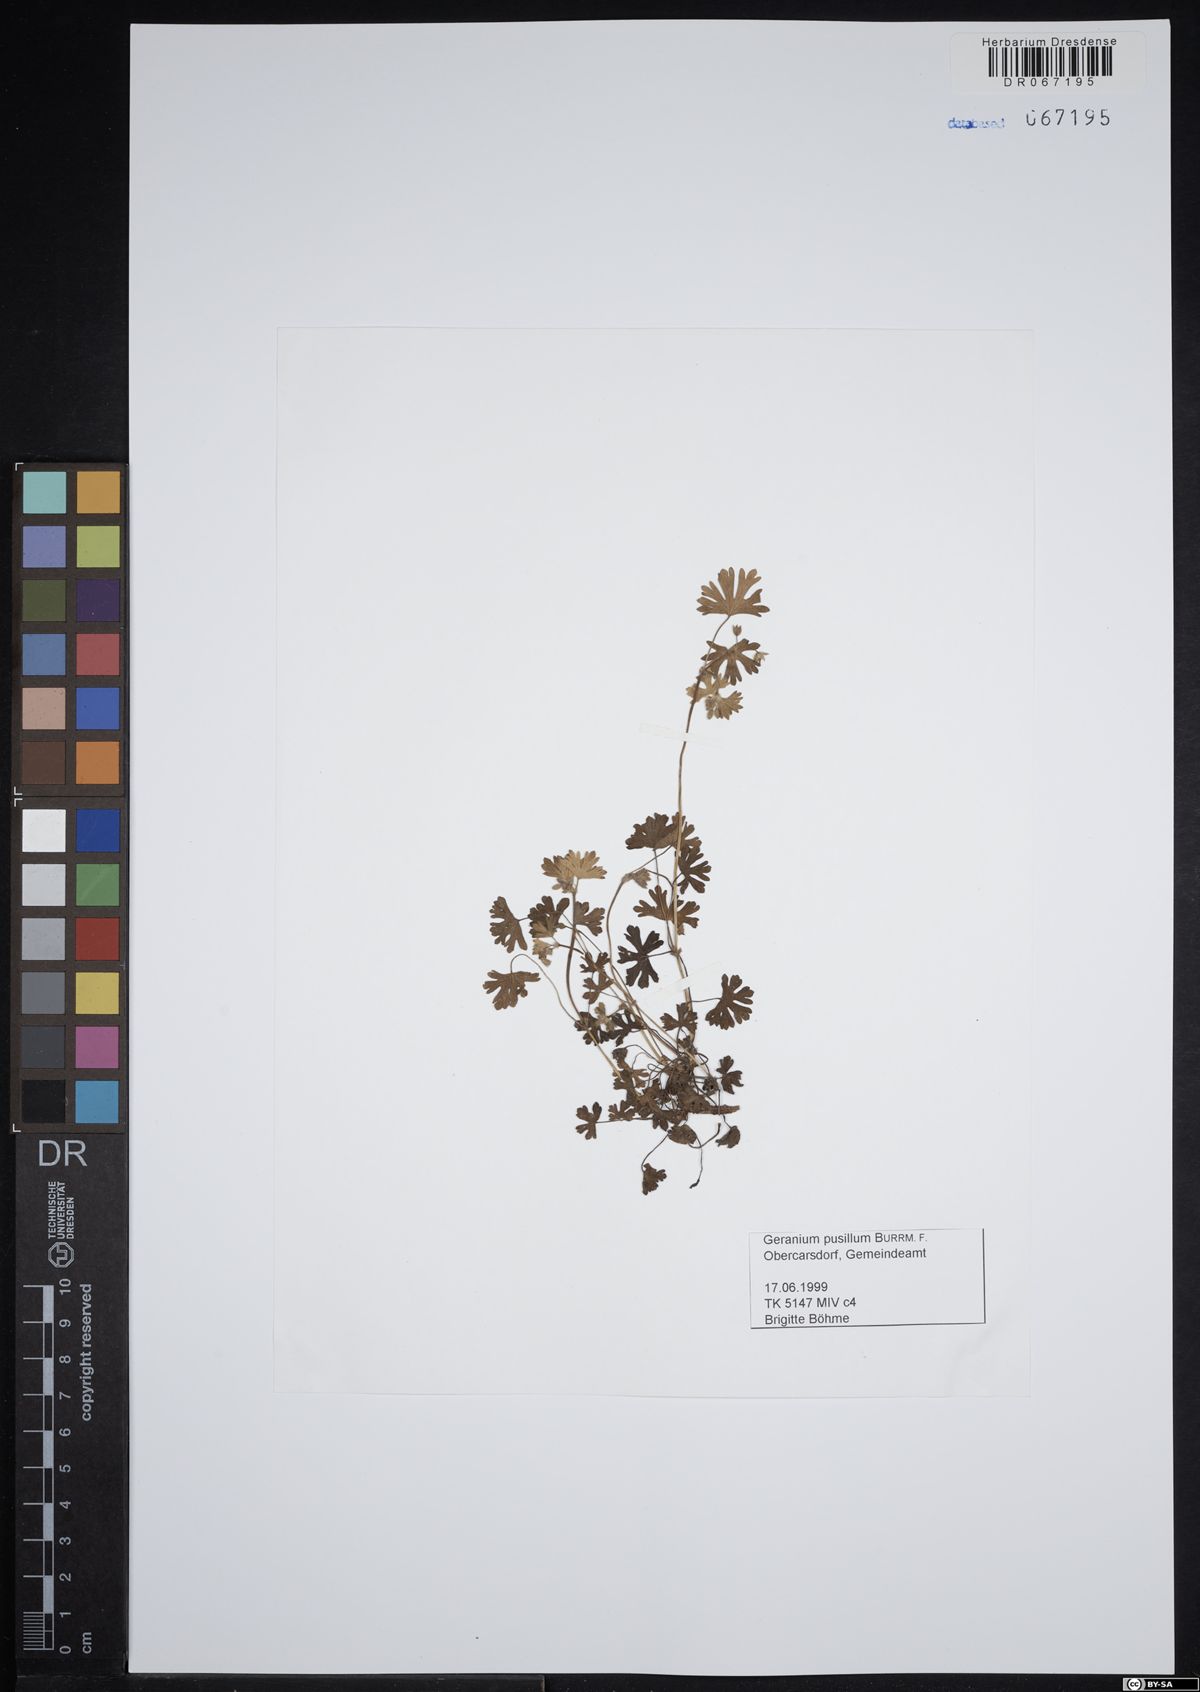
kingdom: Plantae
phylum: Tracheophyta
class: Magnoliopsida
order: Geraniales
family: Geraniaceae
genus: Geranium
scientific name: Geranium pusillum
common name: Small geranium
